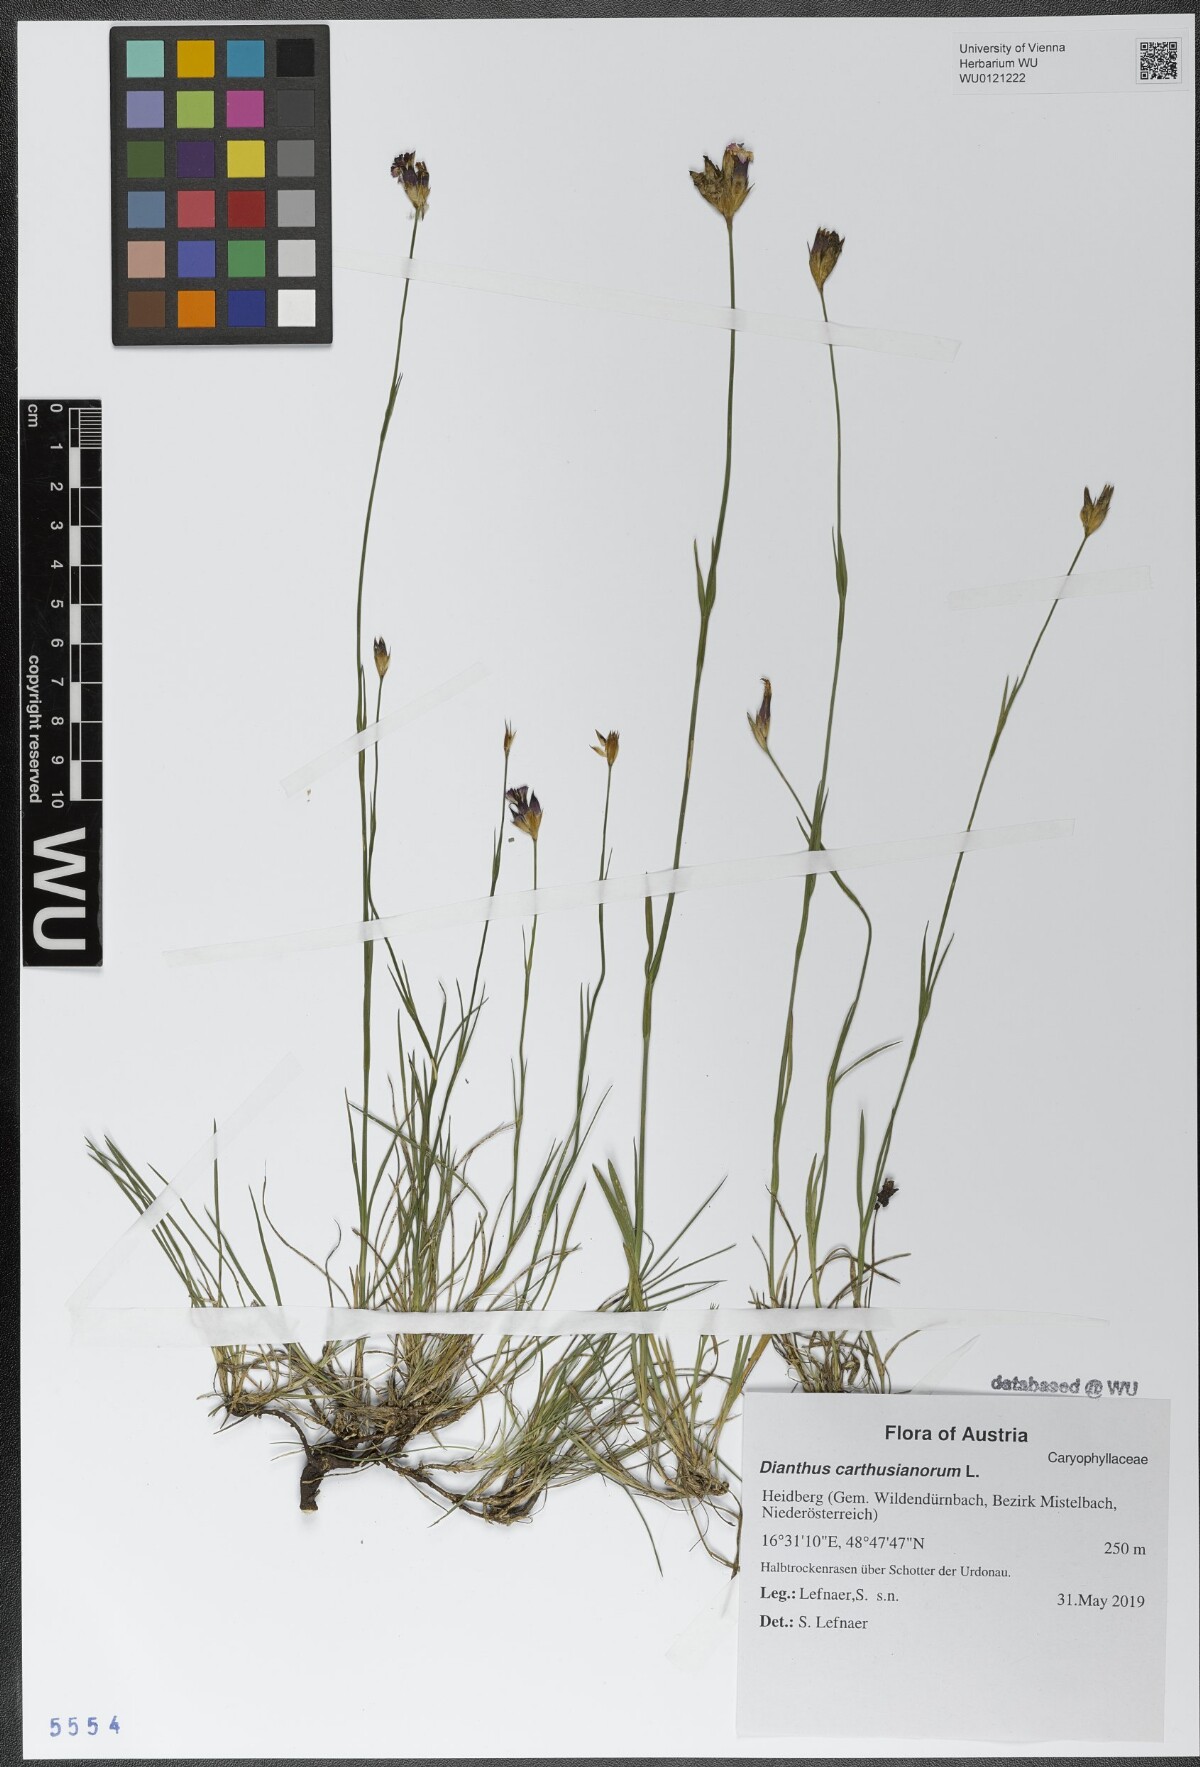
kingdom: Plantae
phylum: Tracheophyta
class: Magnoliopsida
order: Caryophyllales
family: Caryophyllaceae
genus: Dianthus
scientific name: Dianthus carthusianorum
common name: Carthusian pink
